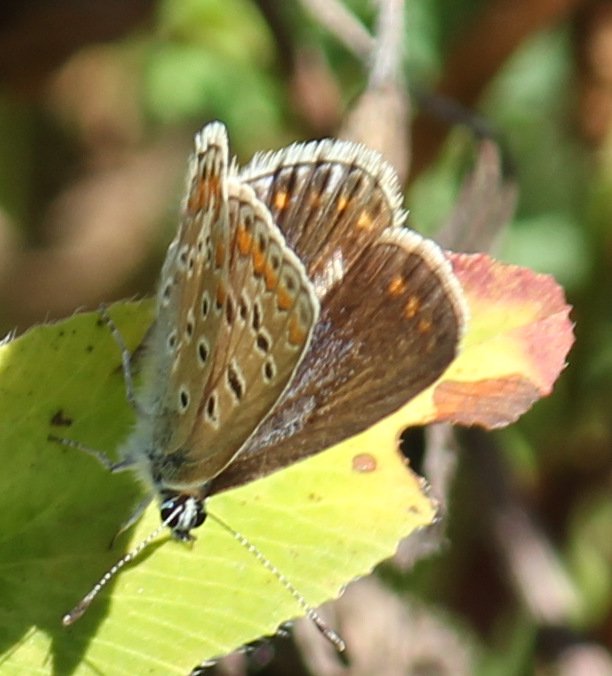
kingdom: Animalia
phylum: Arthropoda
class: Insecta
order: Lepidoptera
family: Lycaenidae
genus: Polyommatus
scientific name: Polyommatus icarus
